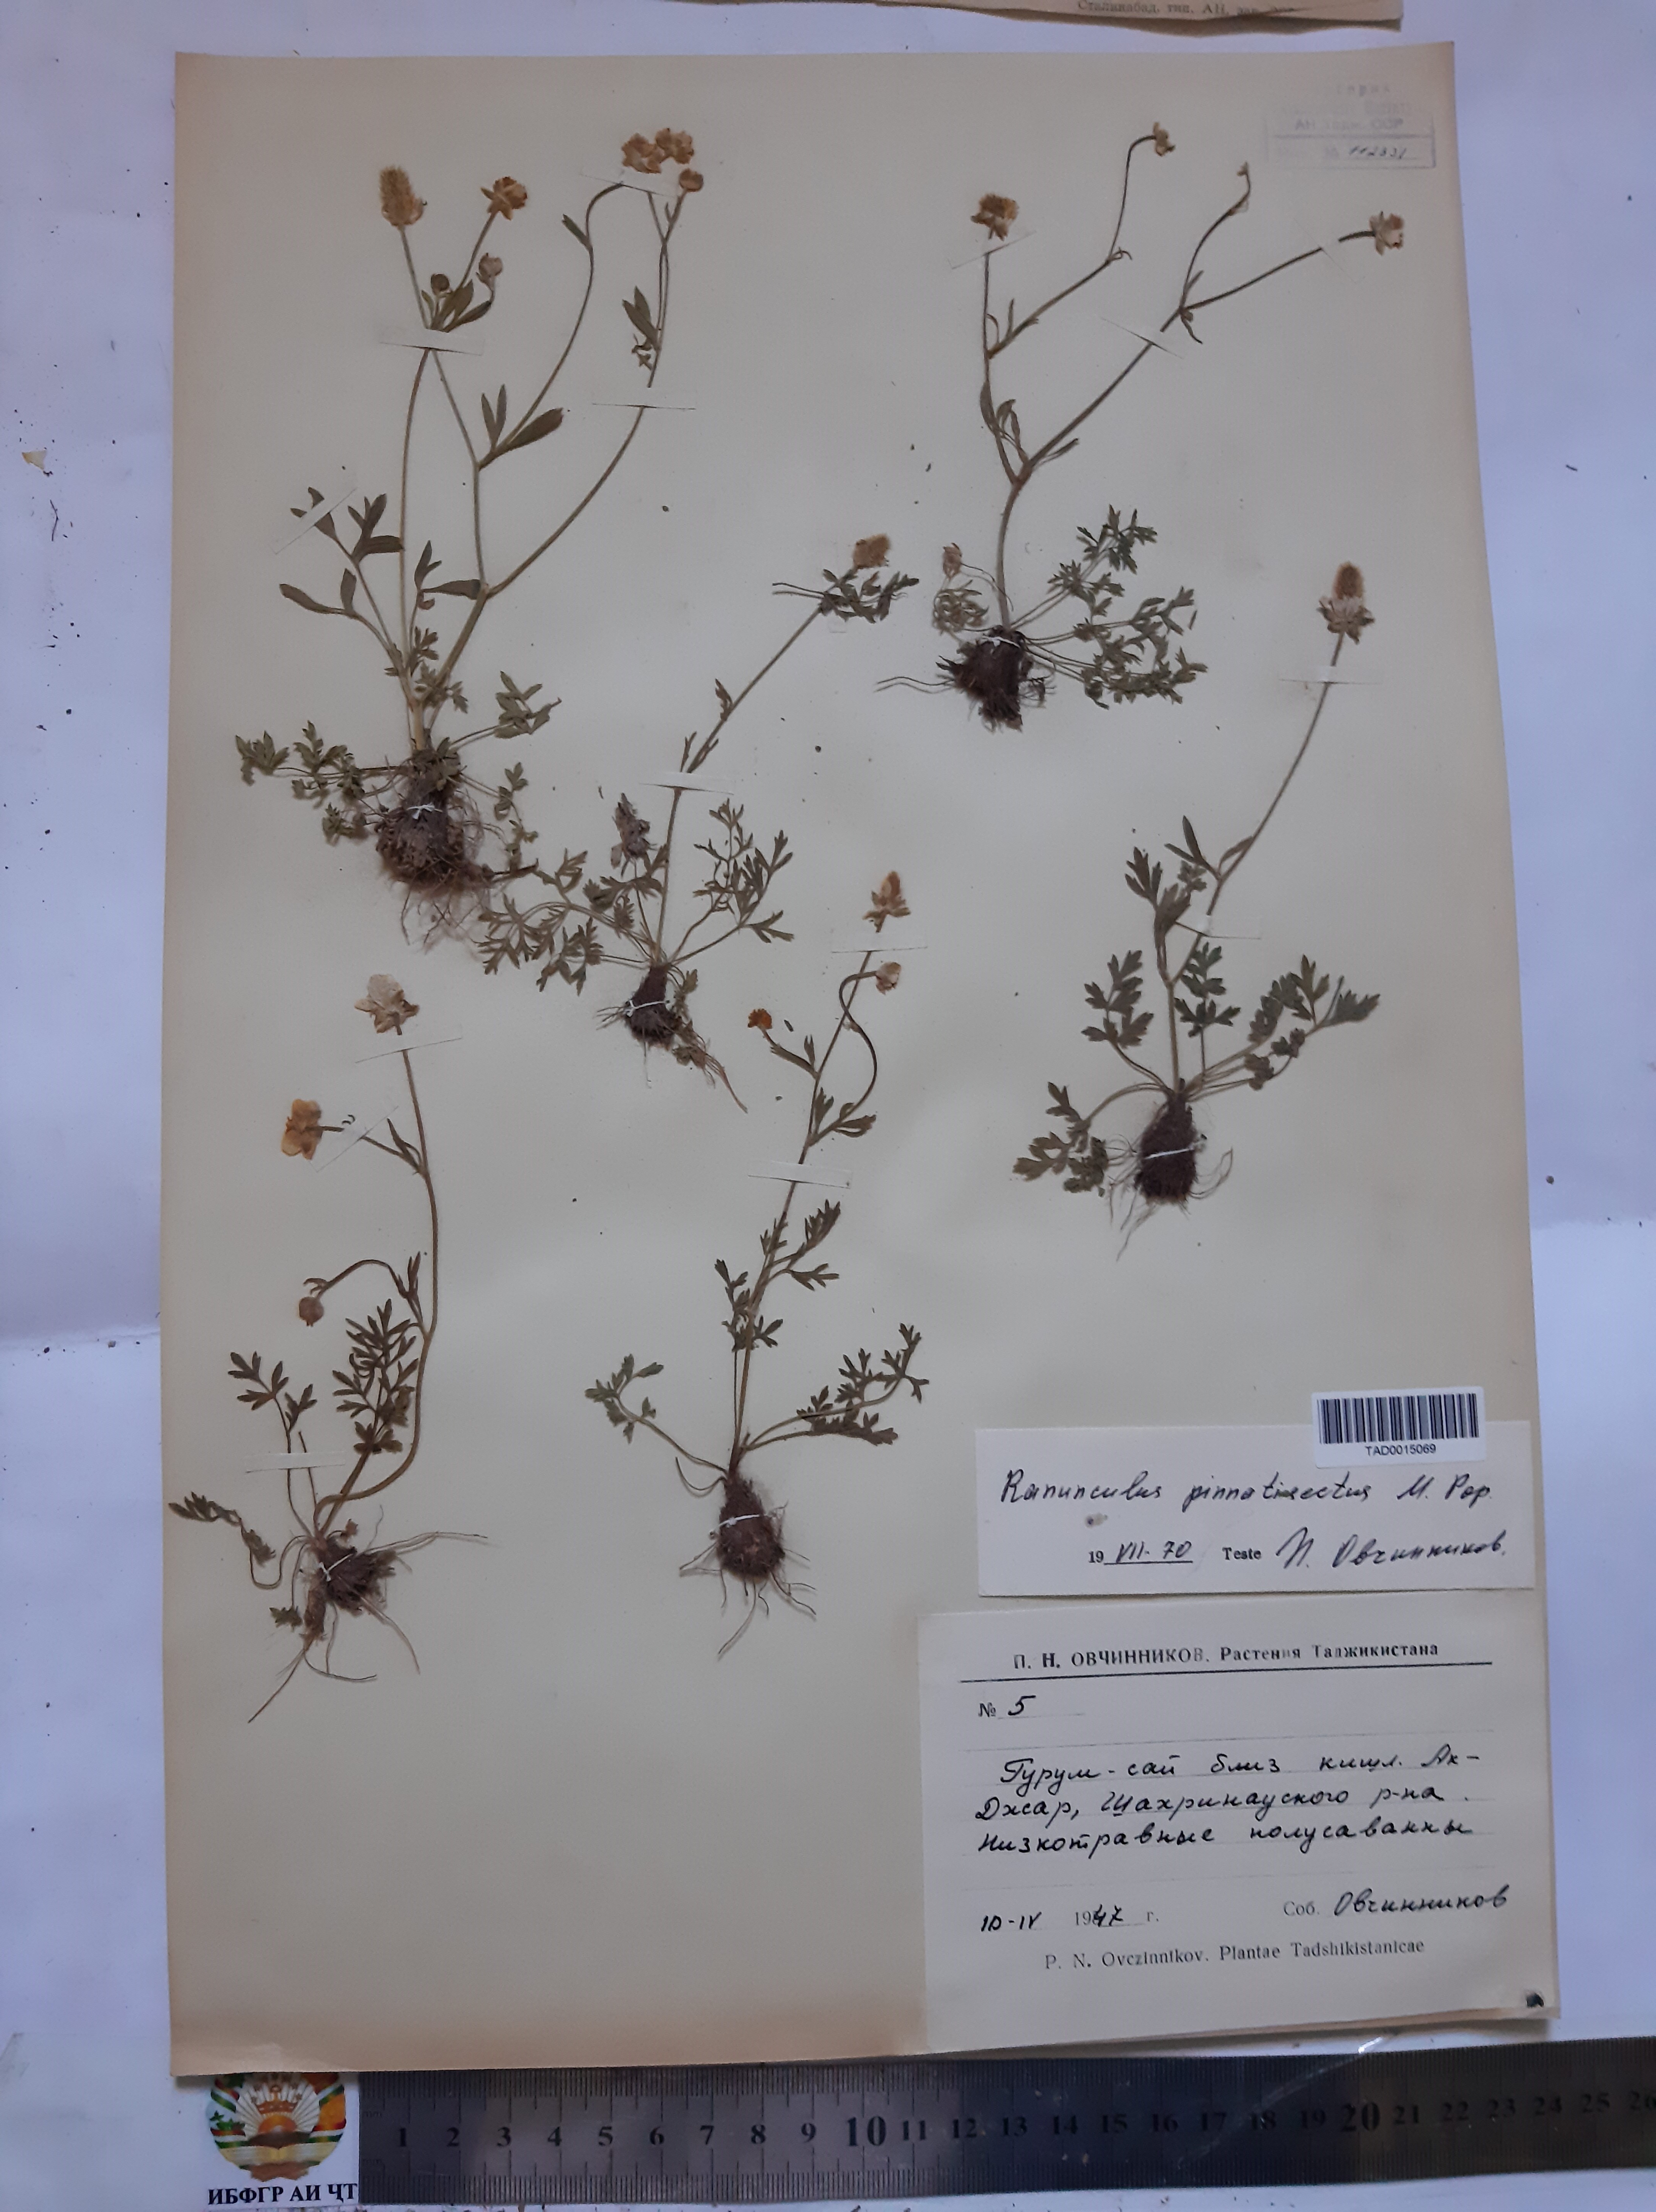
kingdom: Plantae
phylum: Tracheophyta
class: Magnoliopsida
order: Ranunculales
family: Ranunculaceae
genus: Ranunculus
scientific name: Ranunculus pinnatisectus
